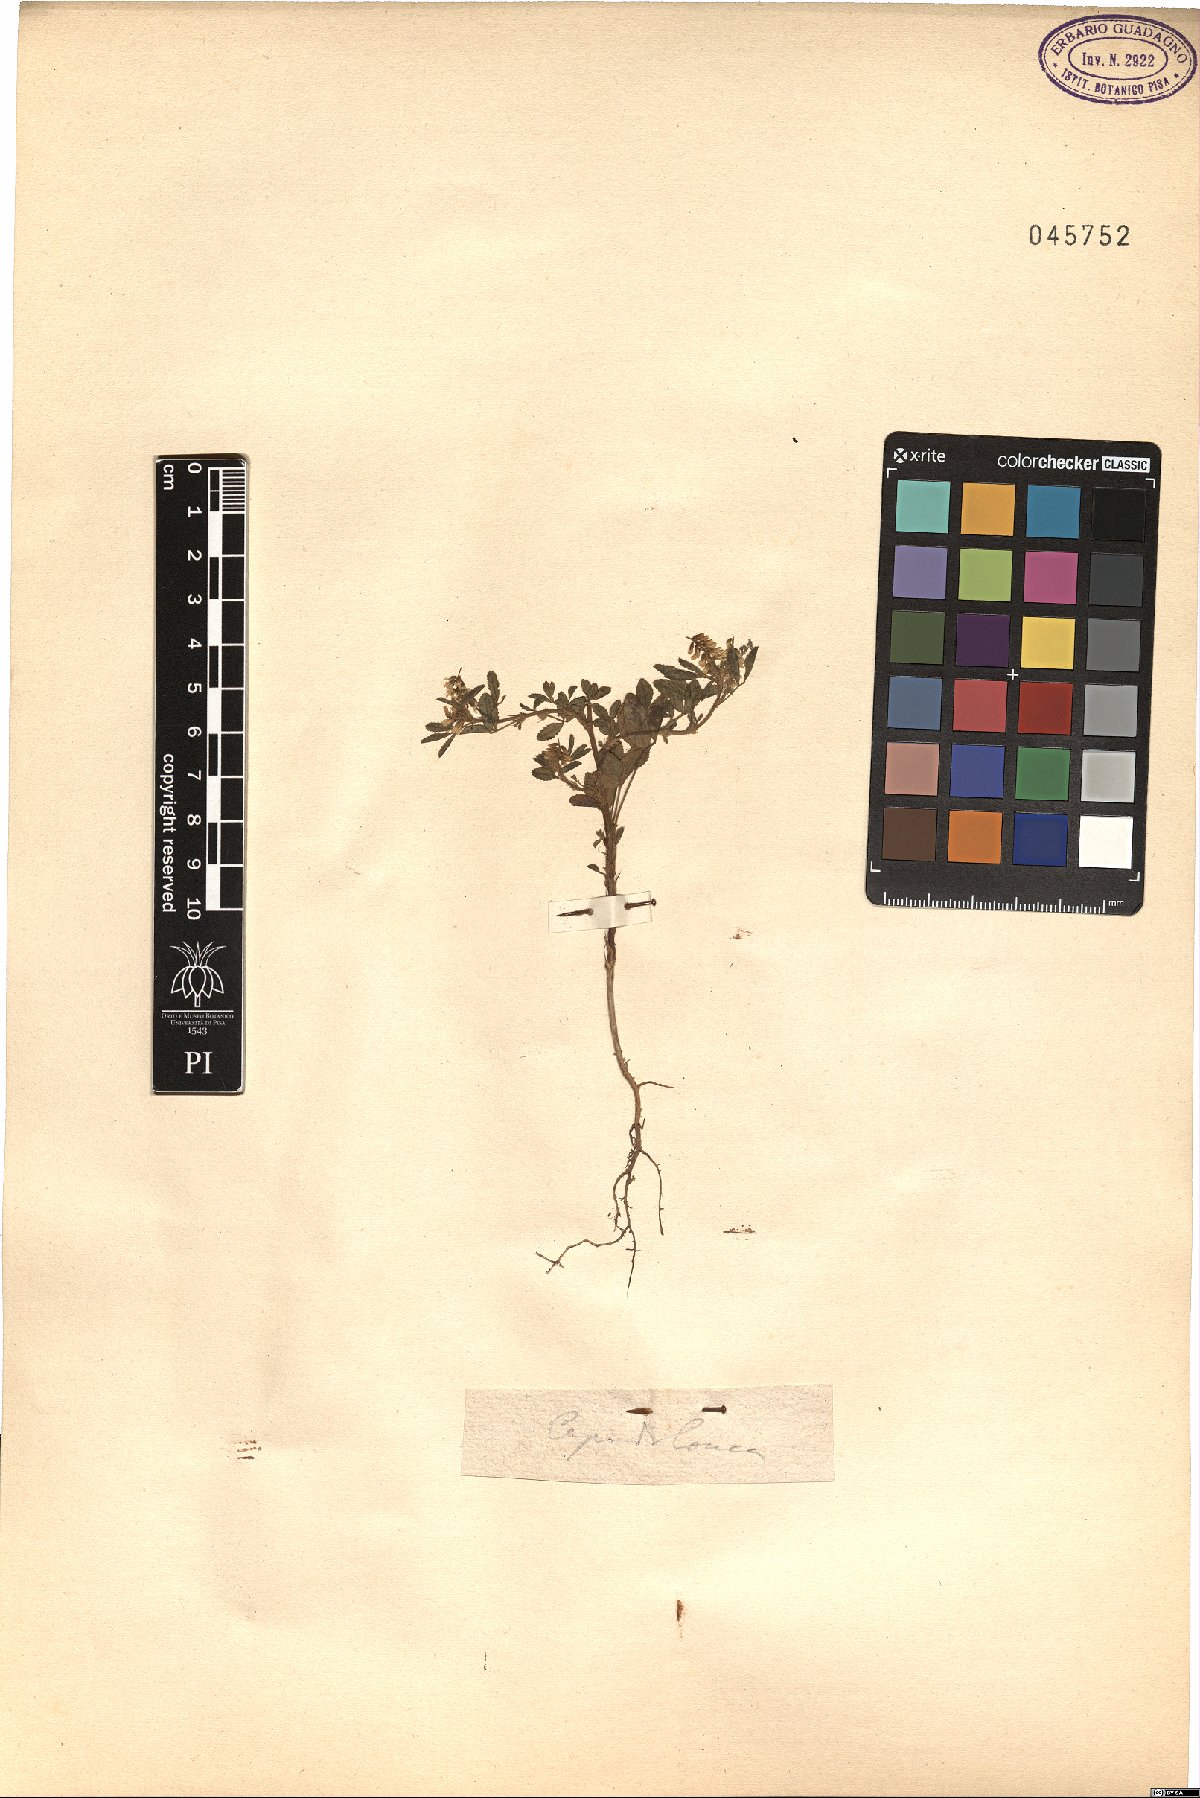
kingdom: Plantae
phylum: Tracheophyta
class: Magnoliopsida
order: Fabales
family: Fabaceae
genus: Melilotus
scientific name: Melilotus
